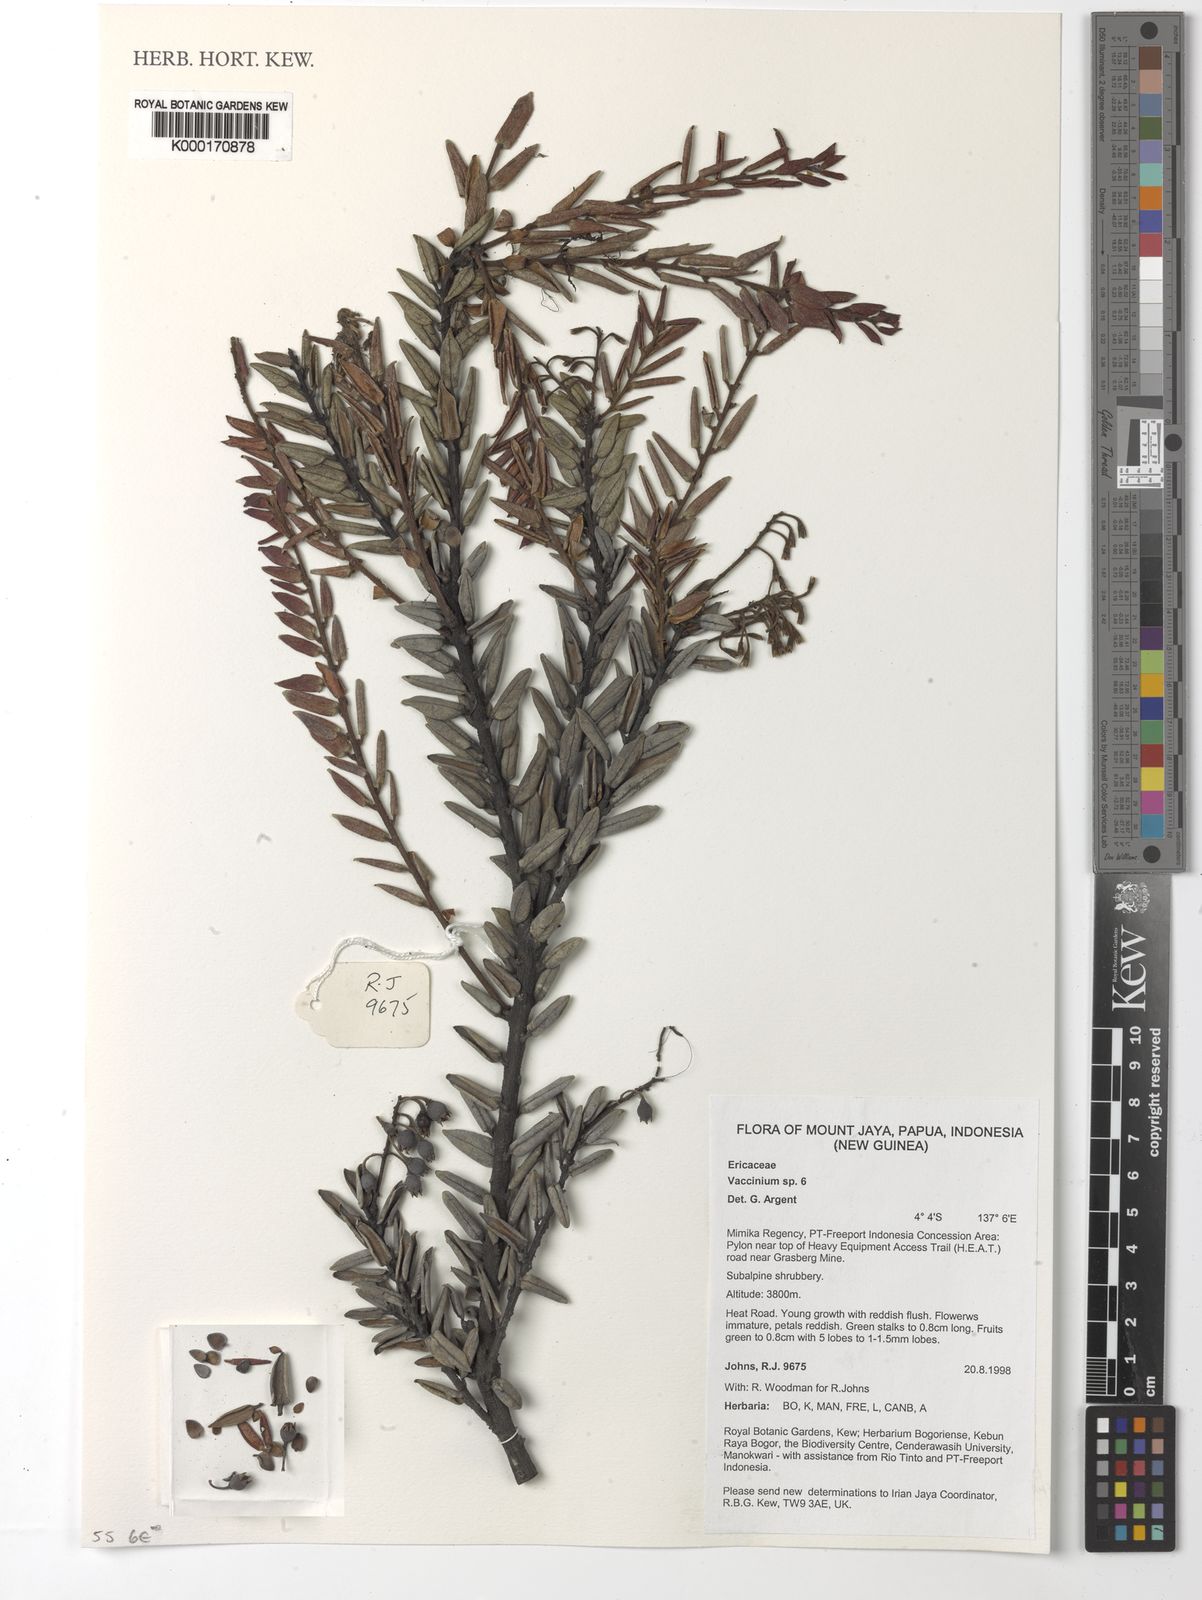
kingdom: Plantae
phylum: Tracheophyta
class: Magnoliopsida
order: Ericales
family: Ericaceae
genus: Vaccinium
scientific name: Vaccinium
